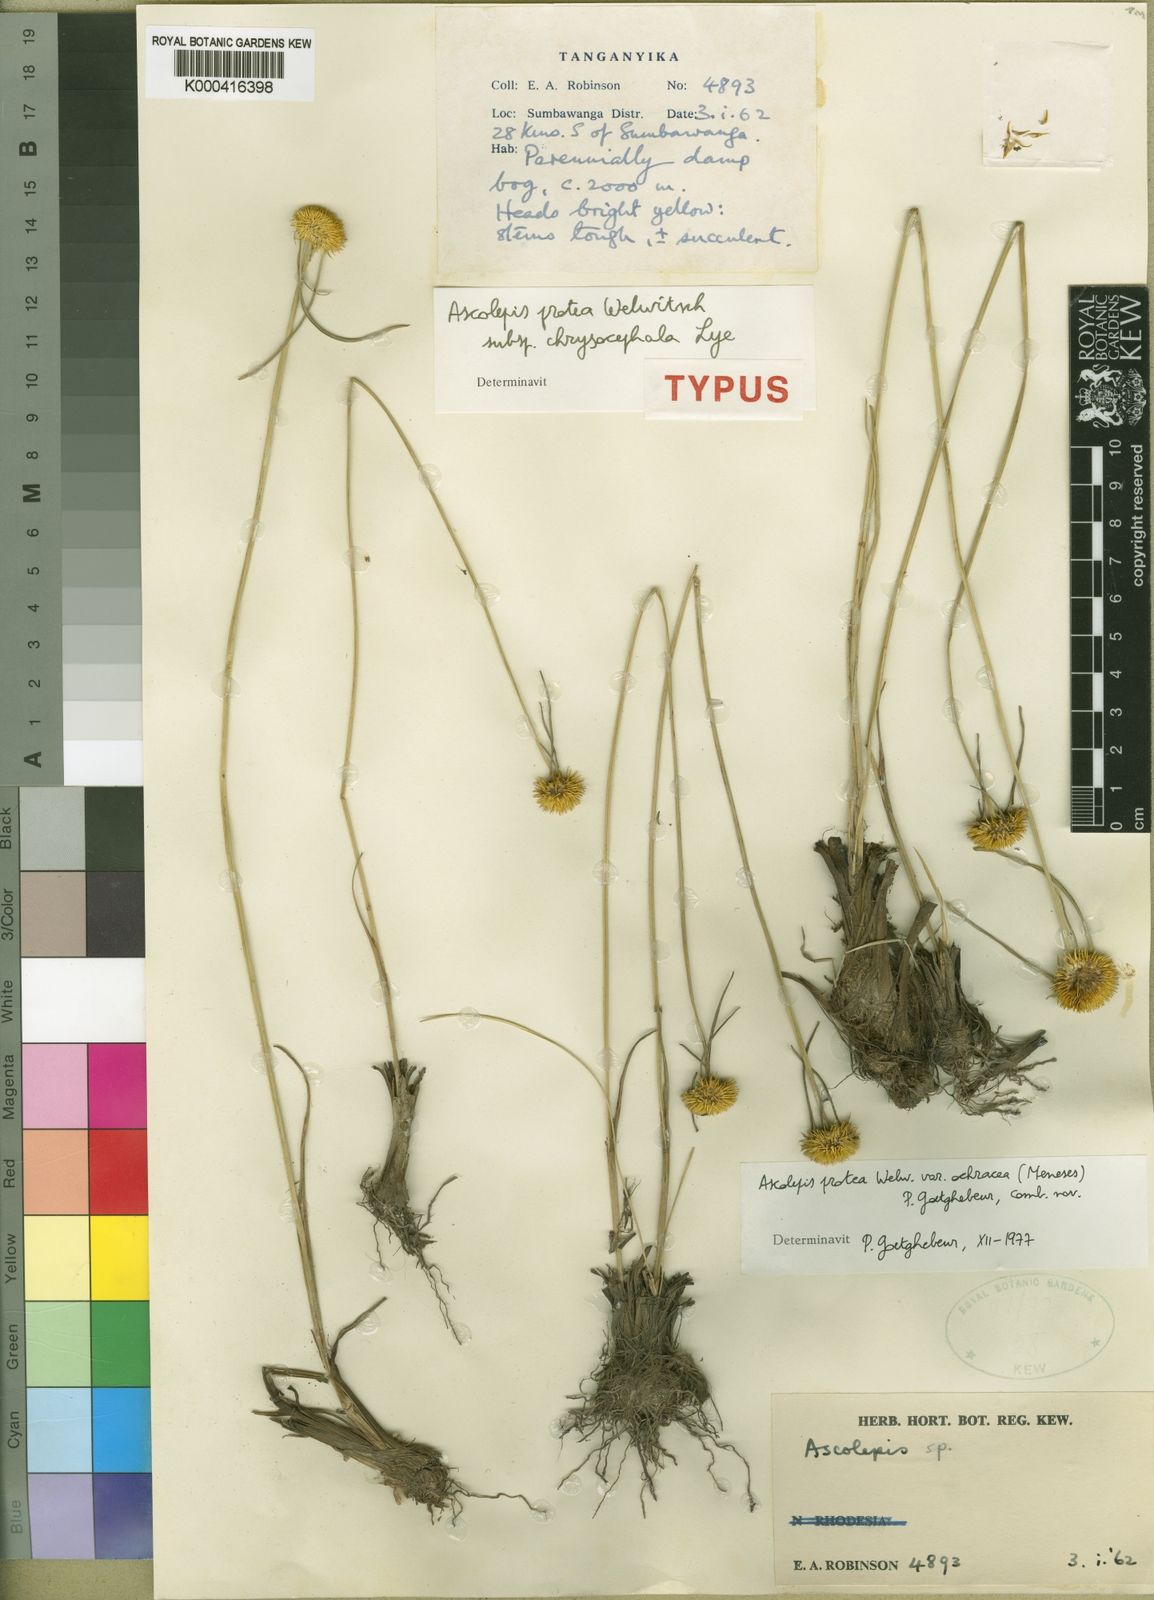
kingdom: Plantae
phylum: Tracheophyta
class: Liliopsida
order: Poales
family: Cyperaceae
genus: Cyperus
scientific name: Cyperus proteus
